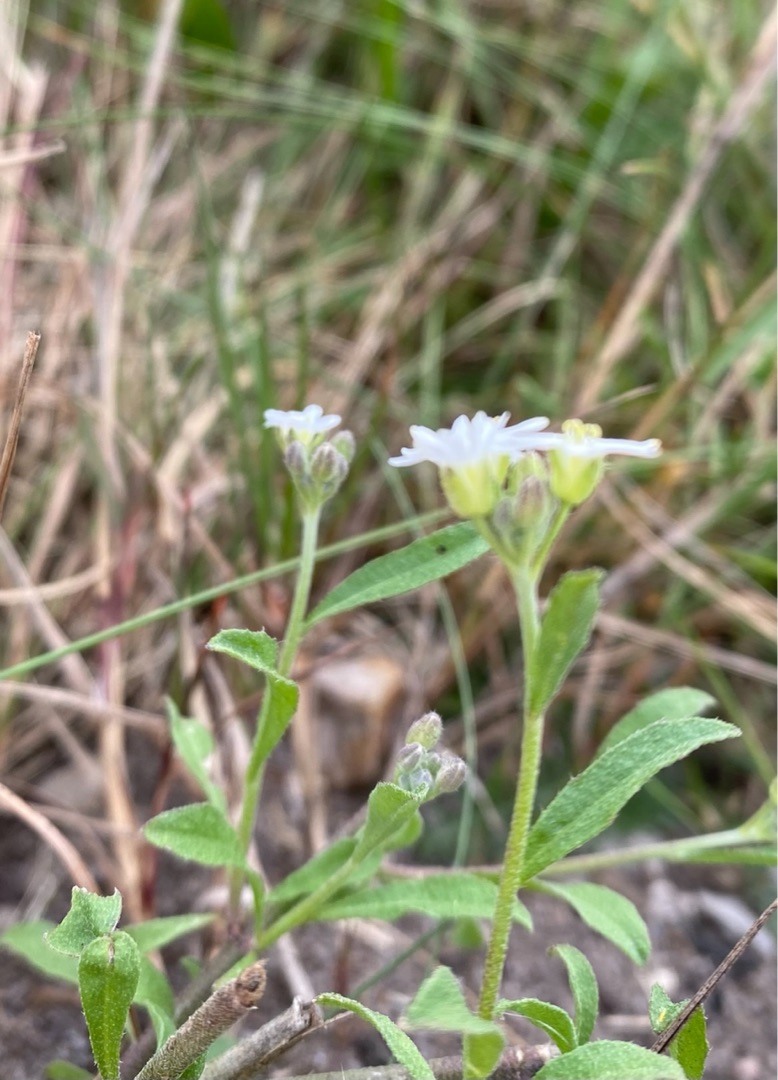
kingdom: Plantae
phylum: Tracheophyta
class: Magnoliopsida
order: Brassicales
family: Brassicaceae
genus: Berteroa
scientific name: Berteroa incana
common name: Kløvplade
